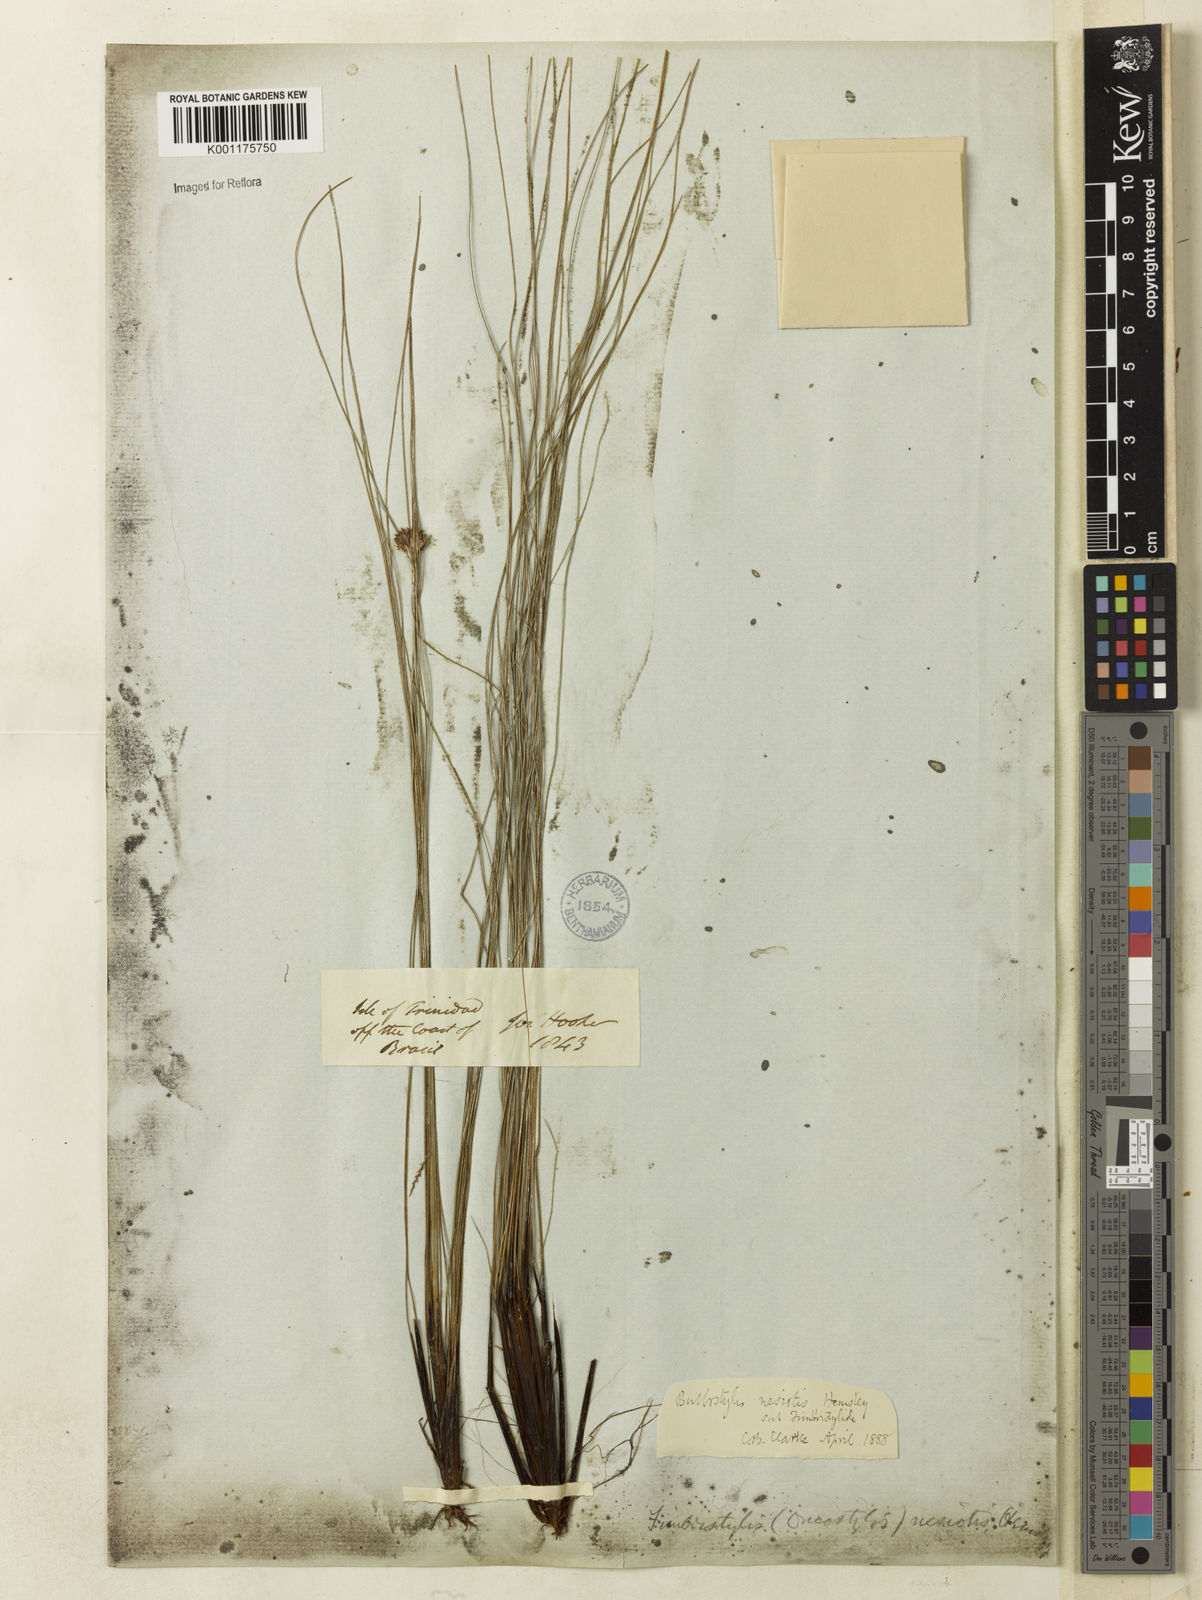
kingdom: Plantae
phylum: Tracheophyta
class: Liliopsida
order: Poales
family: Cyperaceae
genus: Bulbostylis
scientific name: Bulbostylis nesiotis
